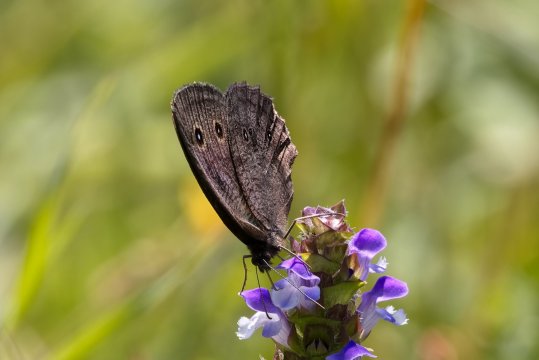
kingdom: Animalia
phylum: Arthropoda
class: Insecta
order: Lepidoptera
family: Nymphalidae
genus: Cercyonis
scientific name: Cercyonis pegala
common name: Common Wood-Nymph
